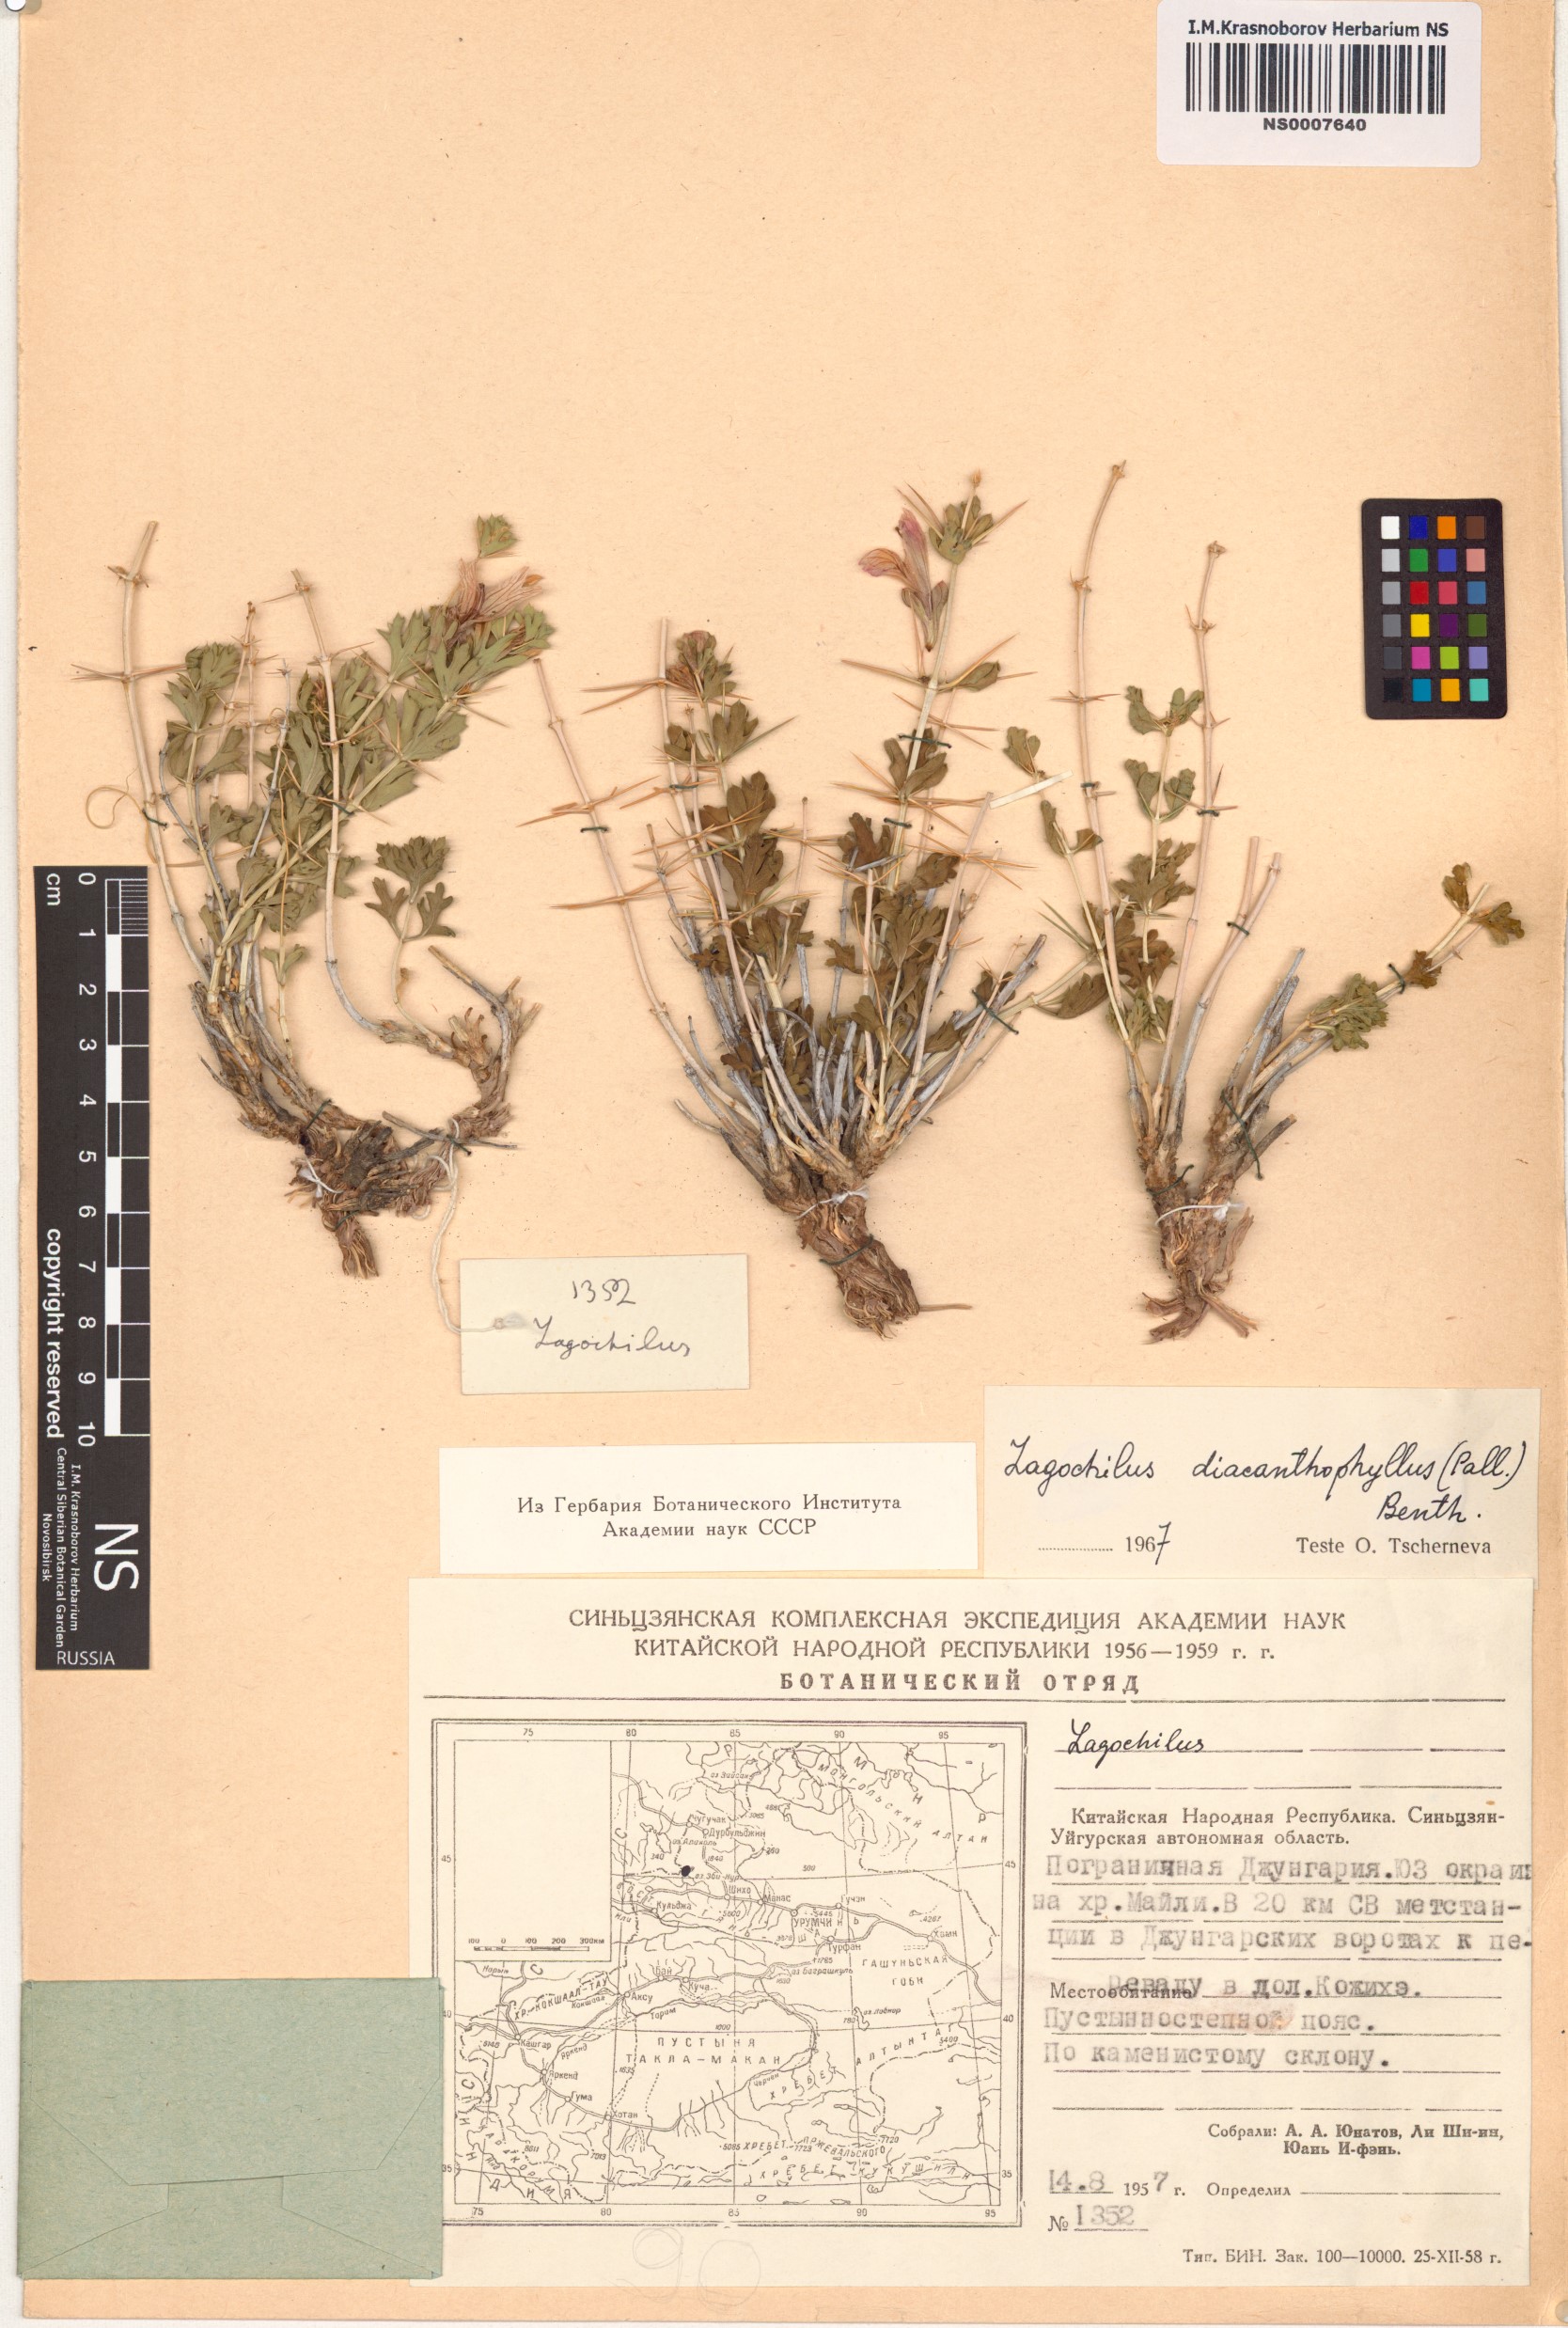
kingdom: Plantae
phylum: Tracheophyta
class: Magnoliopsida
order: Lamiales
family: Lamiaceae
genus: Lagochilus
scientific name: Lagochilus diacanthophyllus
